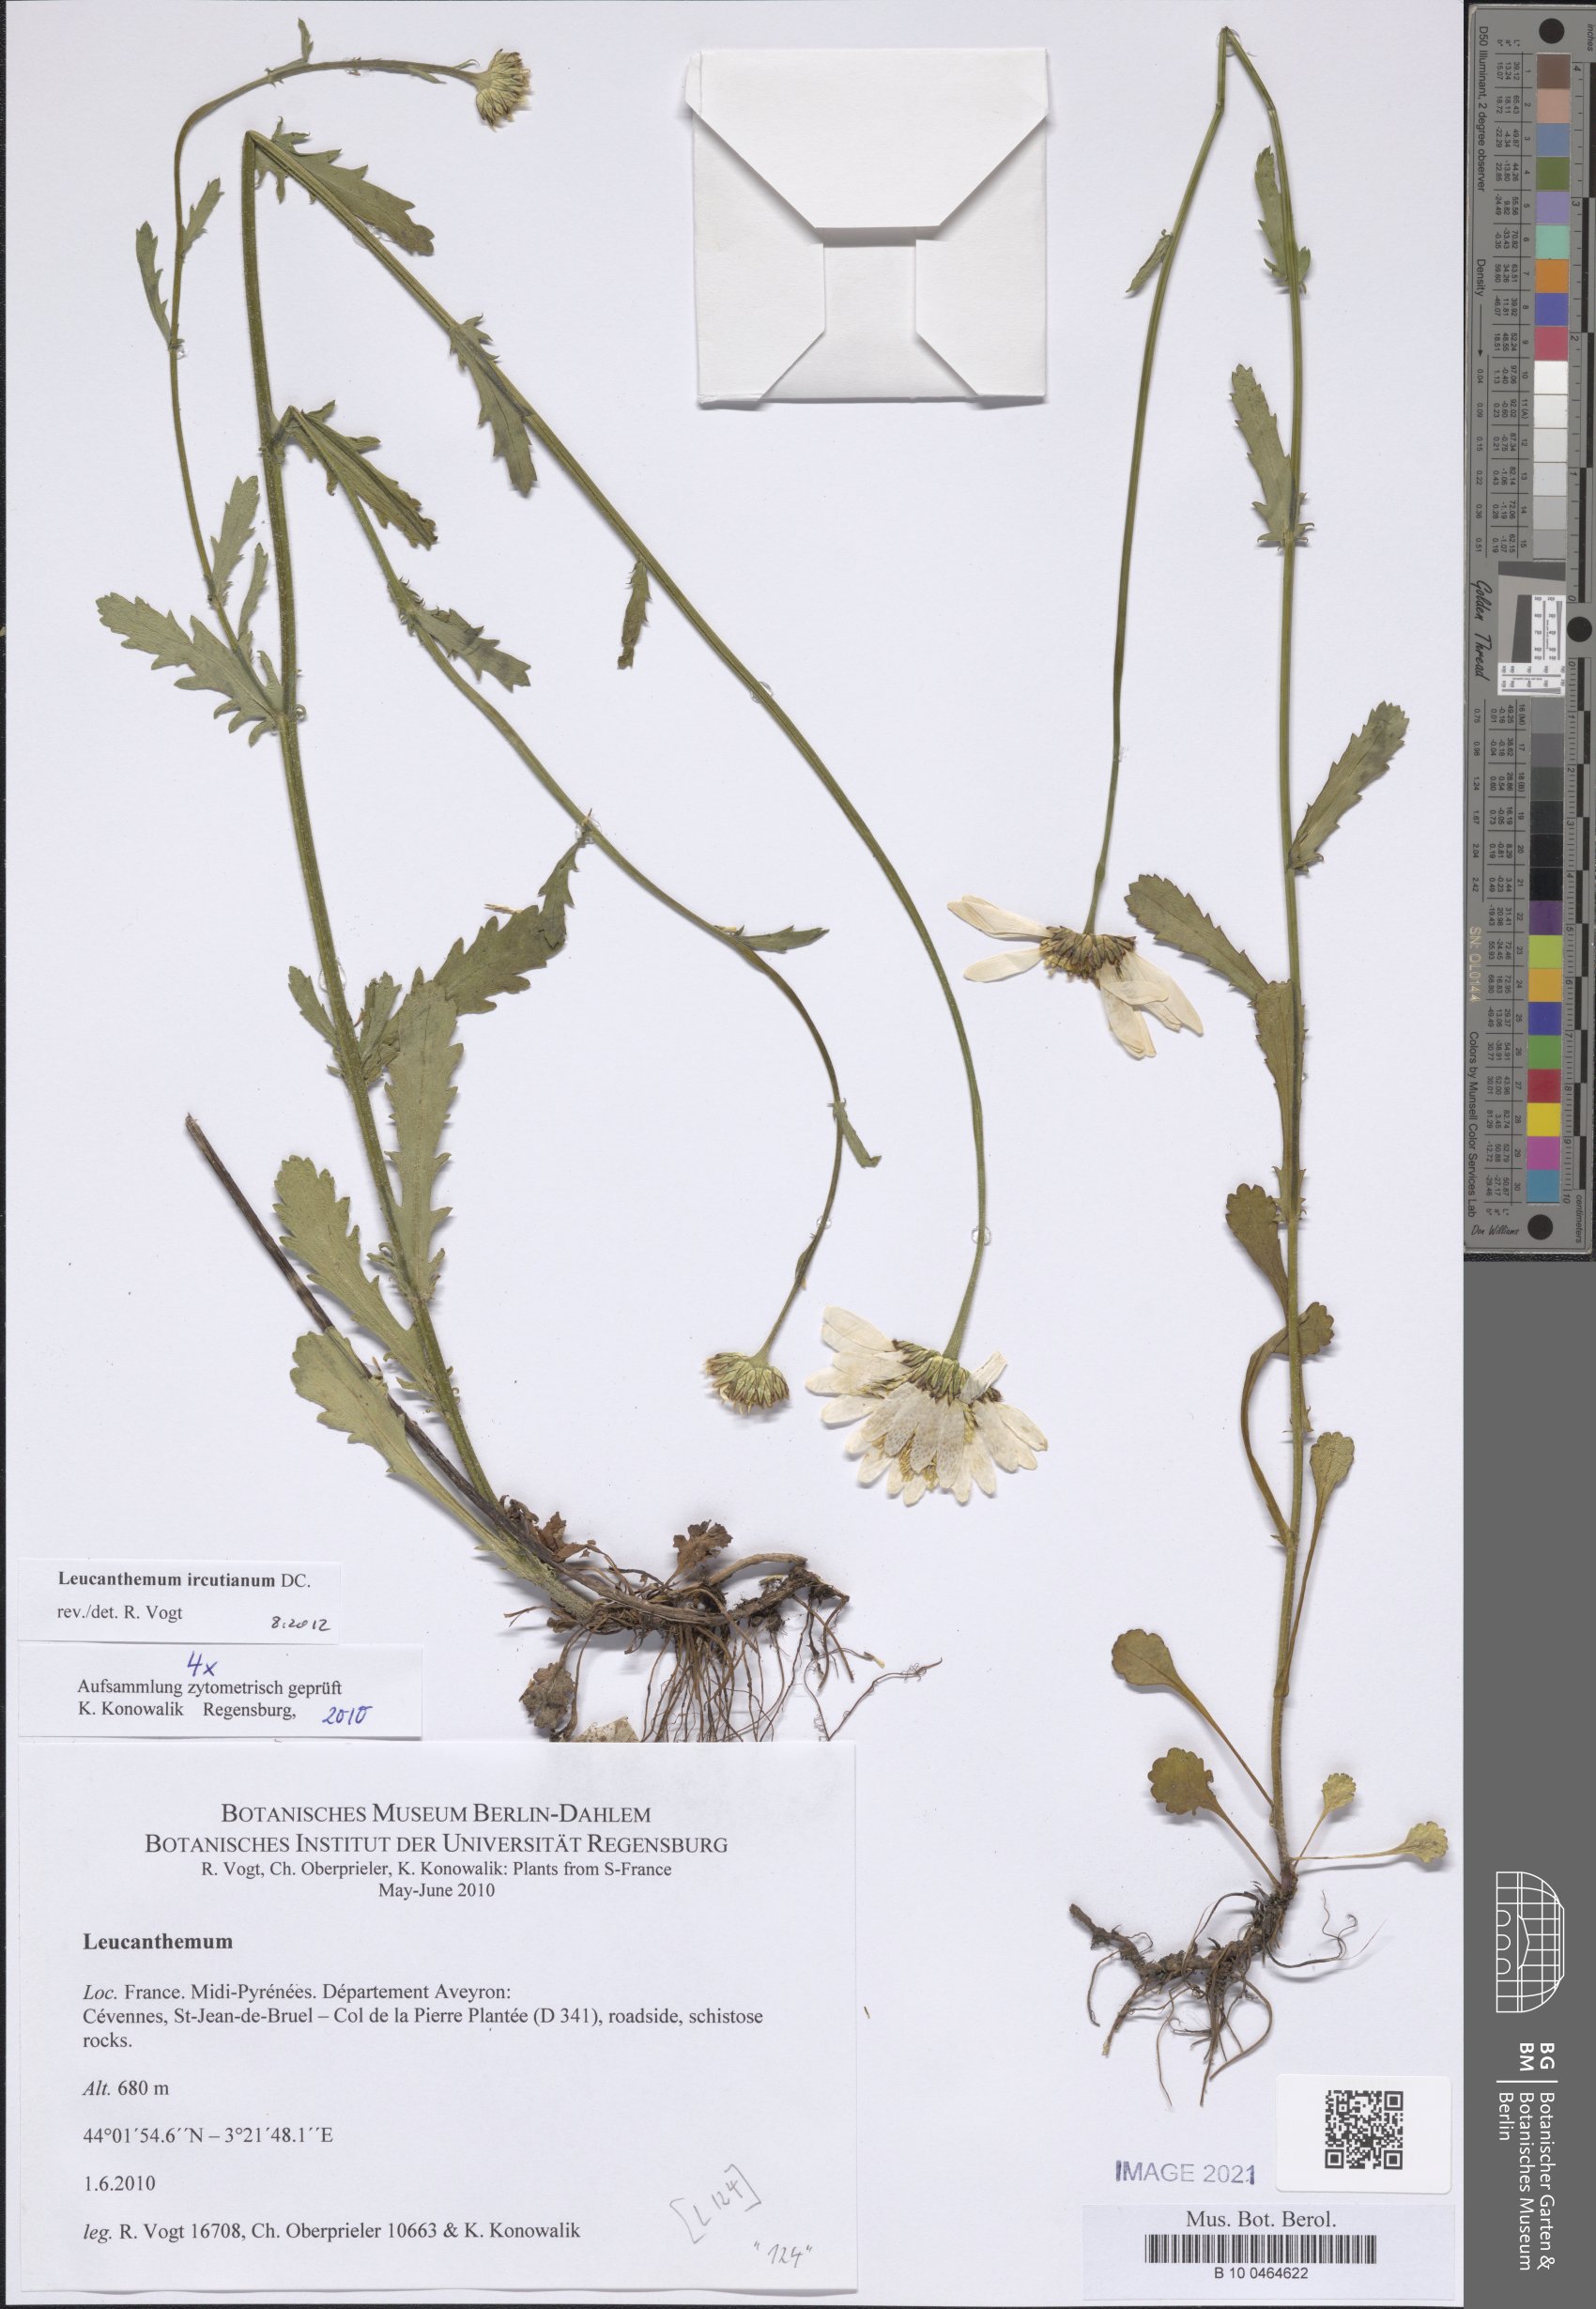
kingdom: Plantae
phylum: Tracheophyta
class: Magnoliopsida
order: Asterales
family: Asteraceae
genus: Leucanthemum
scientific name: Leucanthemum ircutianum
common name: Daisy
